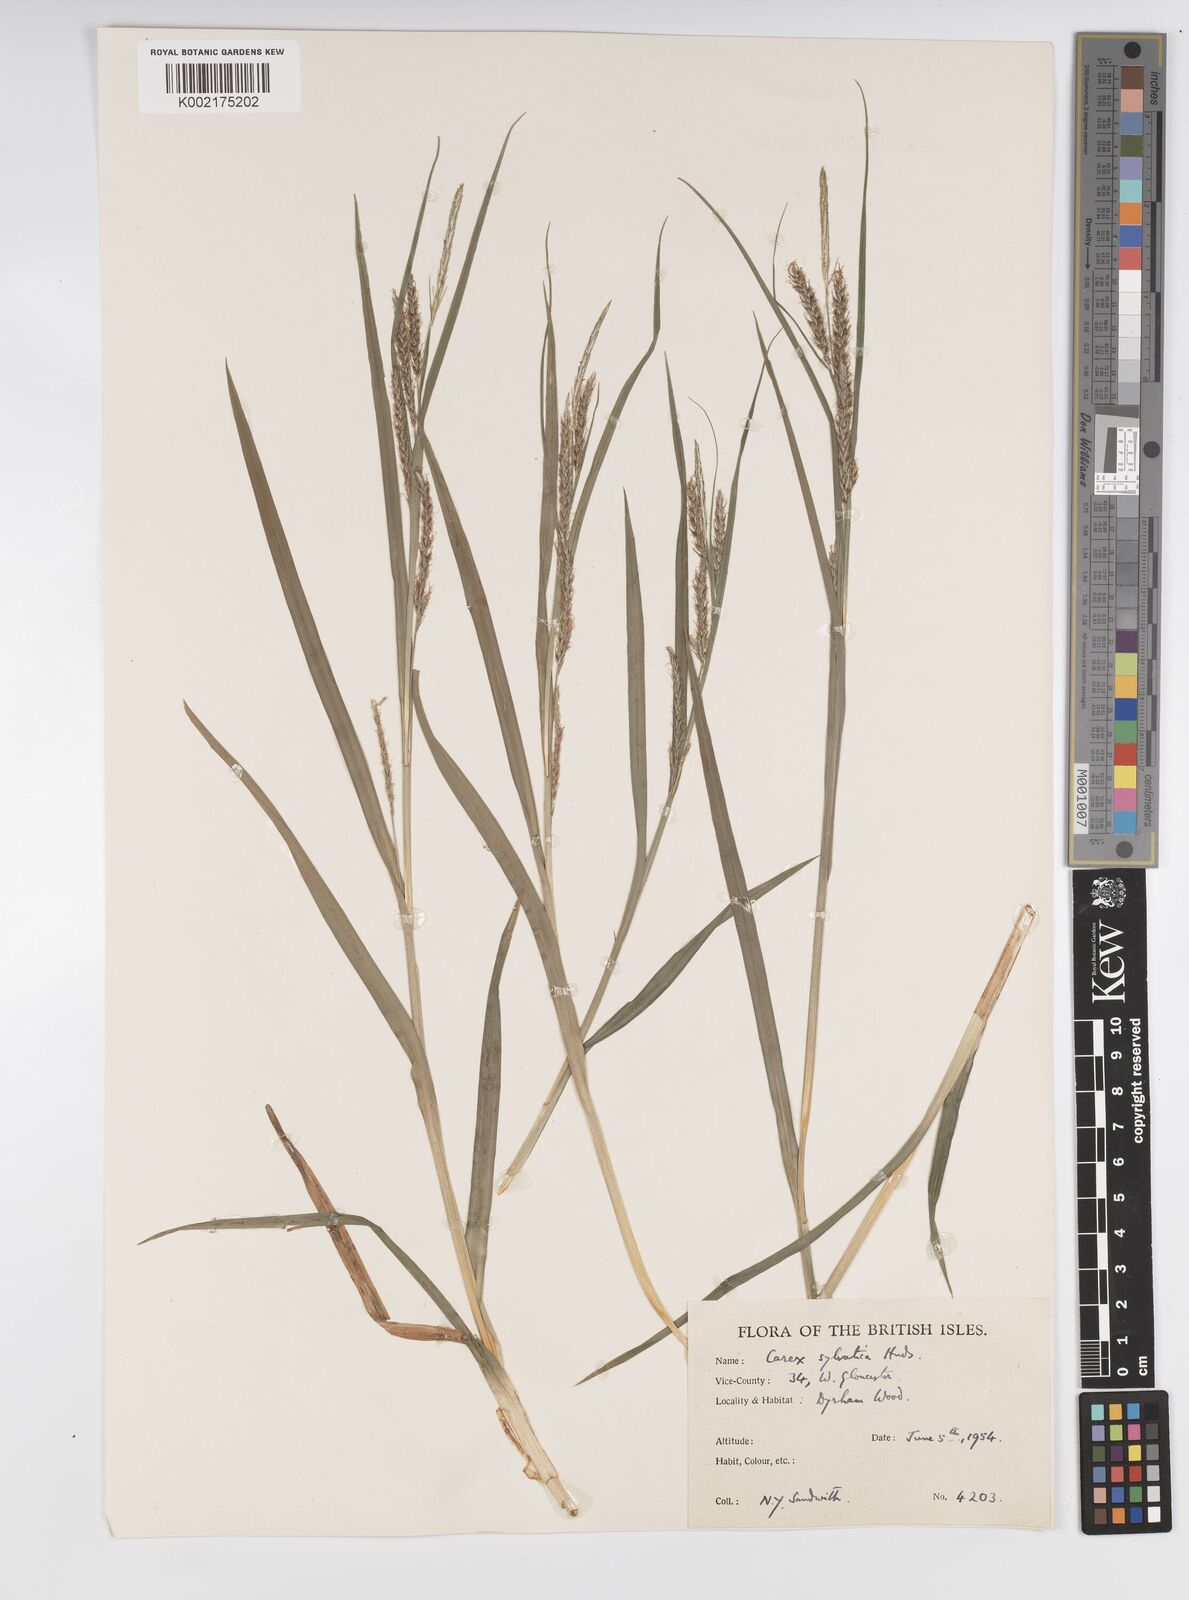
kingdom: Plantae
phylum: Tracheophyta
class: Liliopsida
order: Poales
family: Cyperaceae
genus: Carex
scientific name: Carex sylvatica
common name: Wood-sedge
